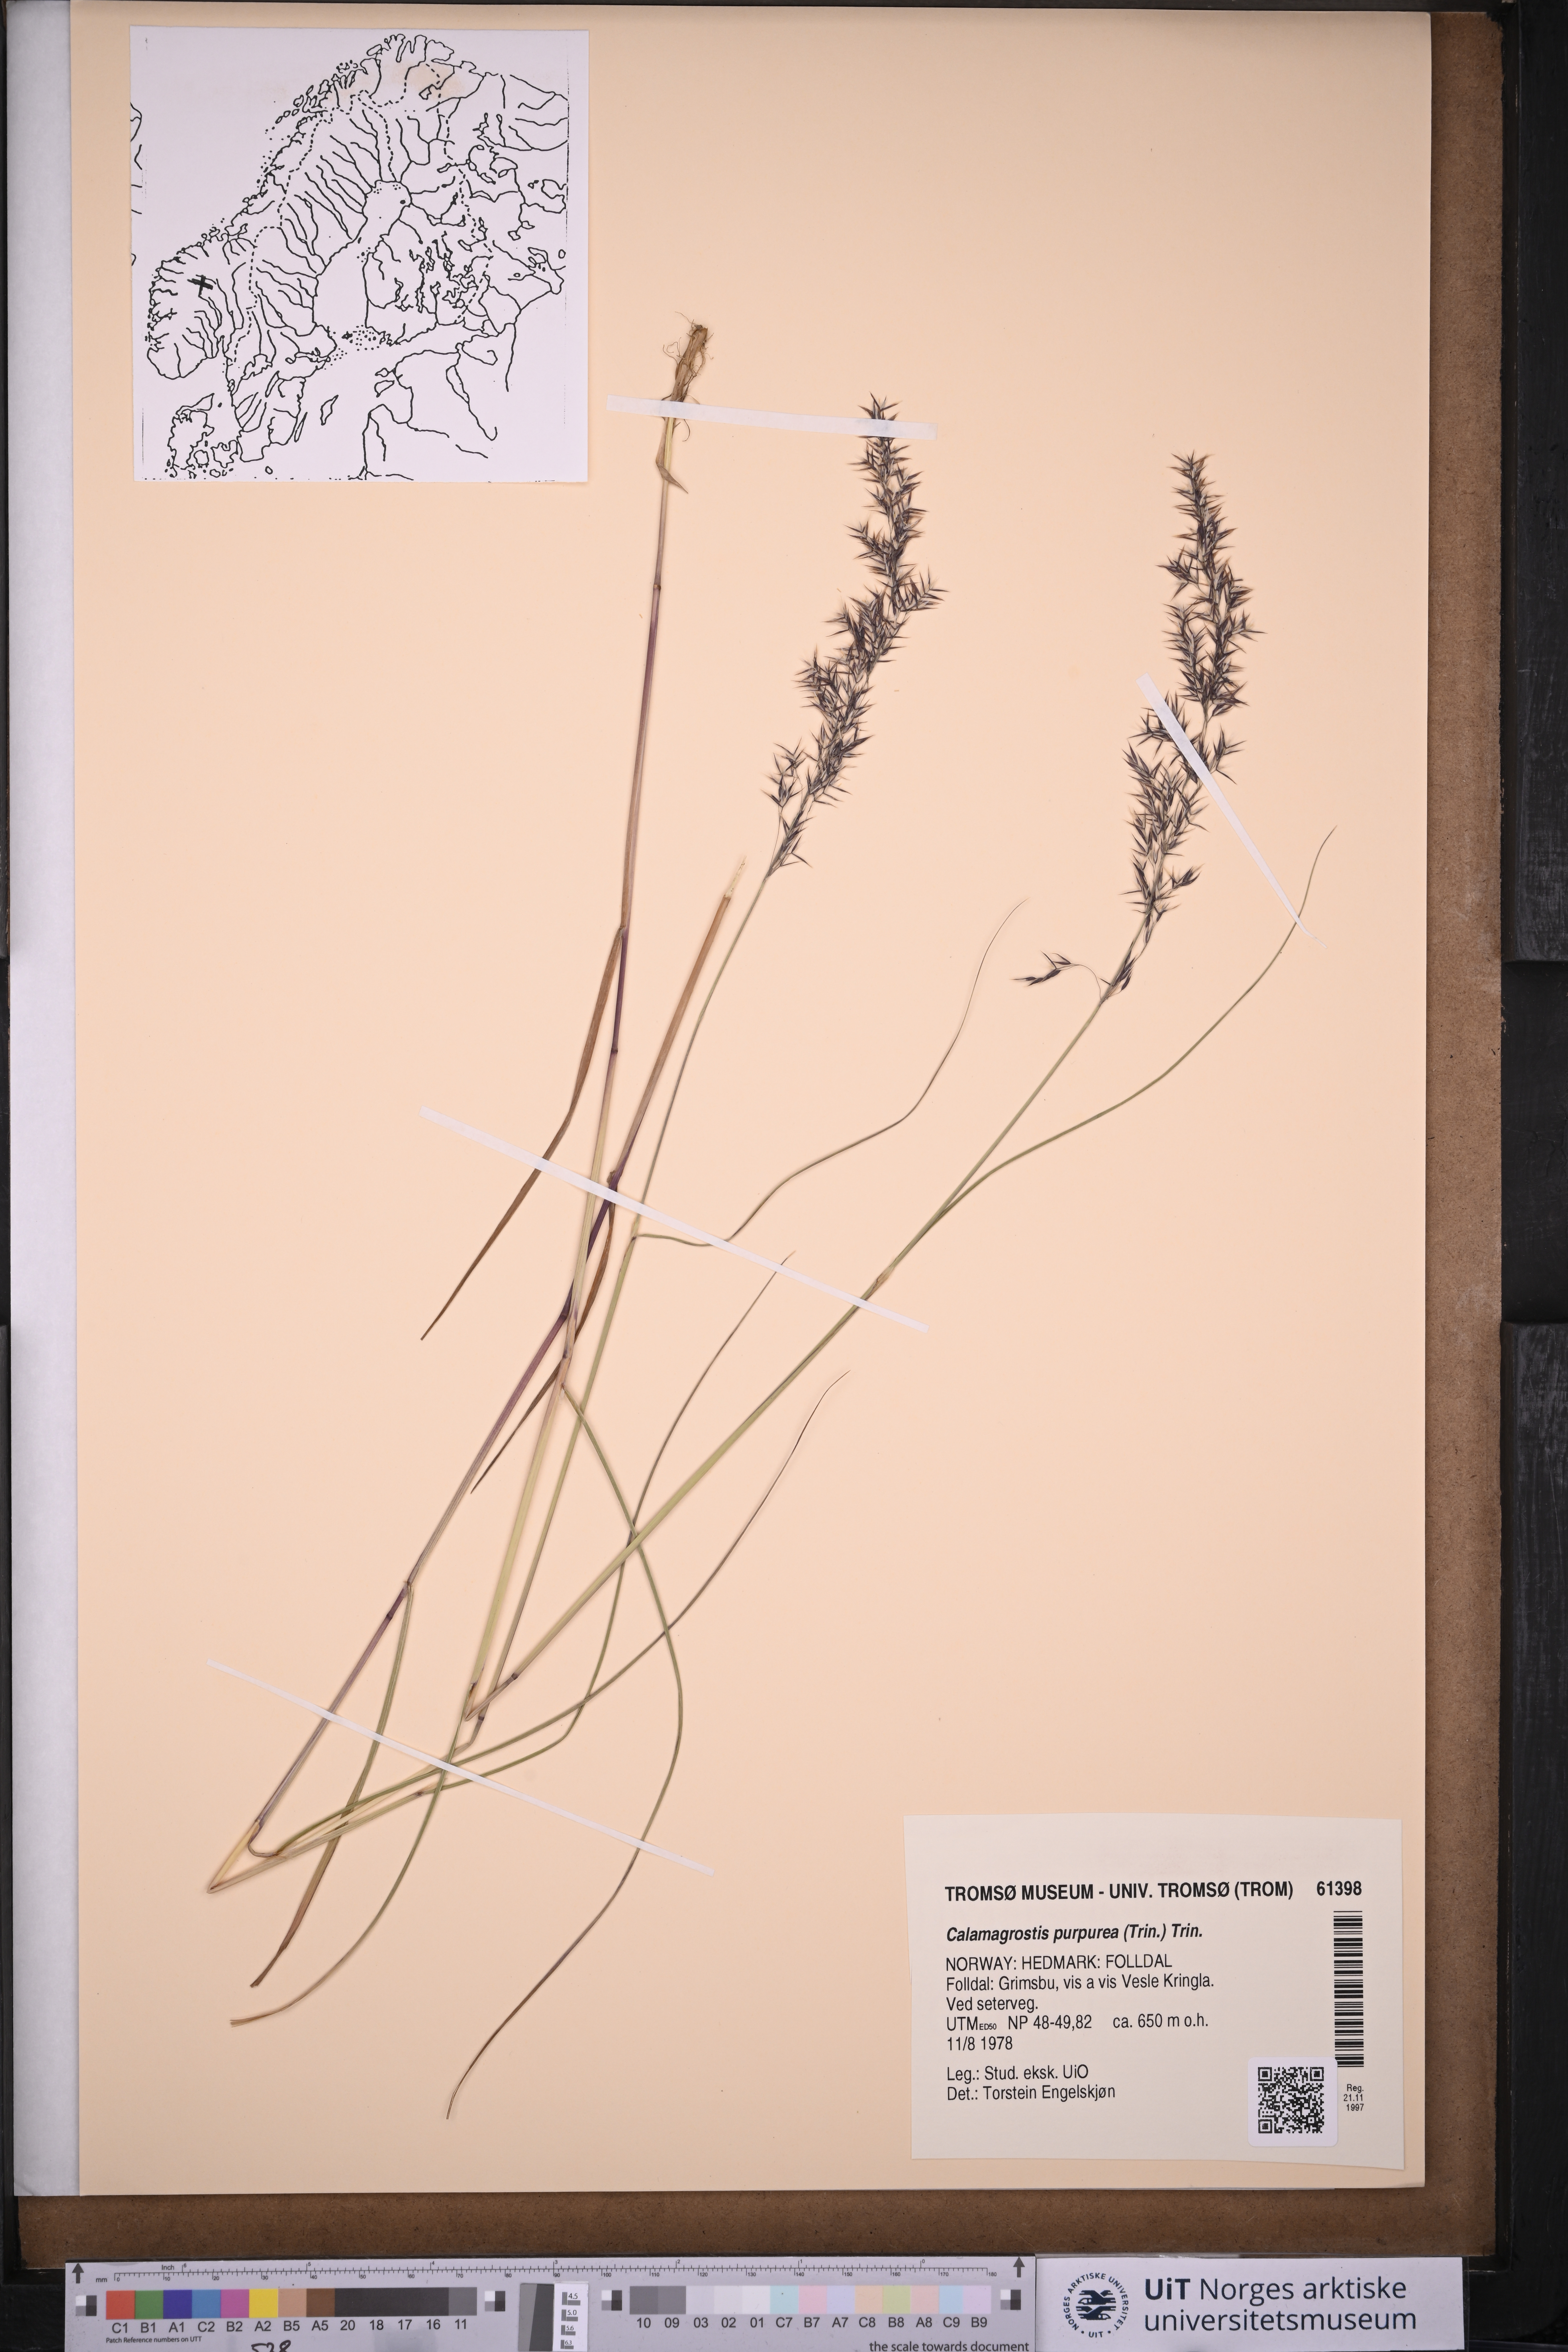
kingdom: Plantae
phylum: Tracheophyta
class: Liliopsida
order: Poales
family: Poaceae
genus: Calamagrostis
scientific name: Calamagrostis purpurea
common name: Scandinavian small-reed
